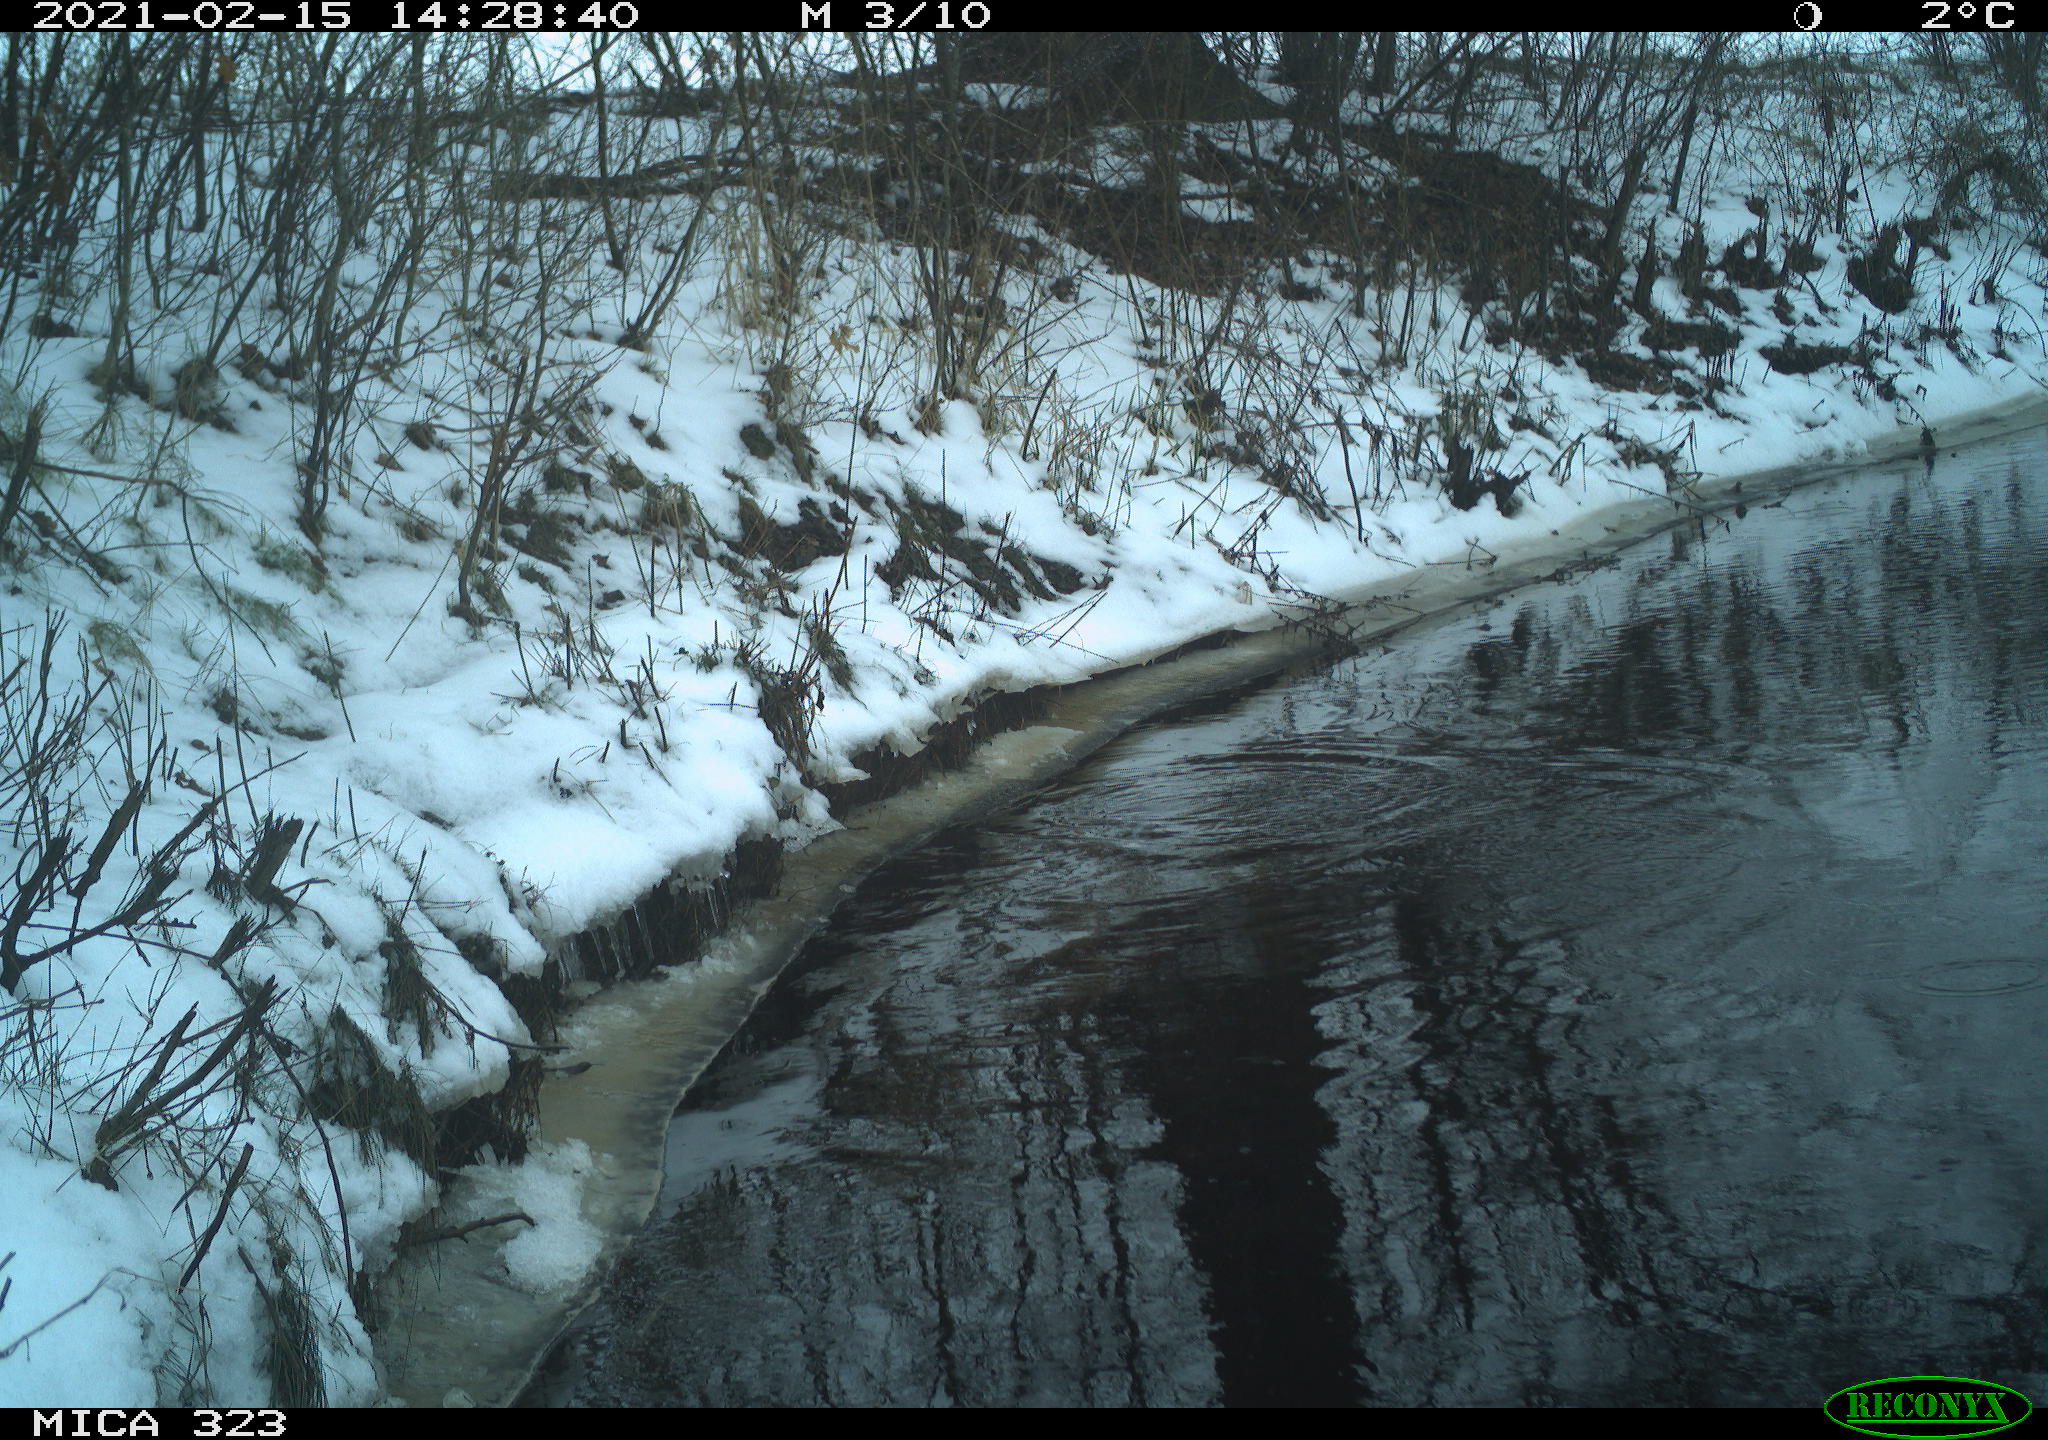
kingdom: Animalia
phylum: Chordata
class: Aves
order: Pelecaniformes
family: Ardeidae
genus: Ardea
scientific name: Ardea cinerea
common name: Grey heron
